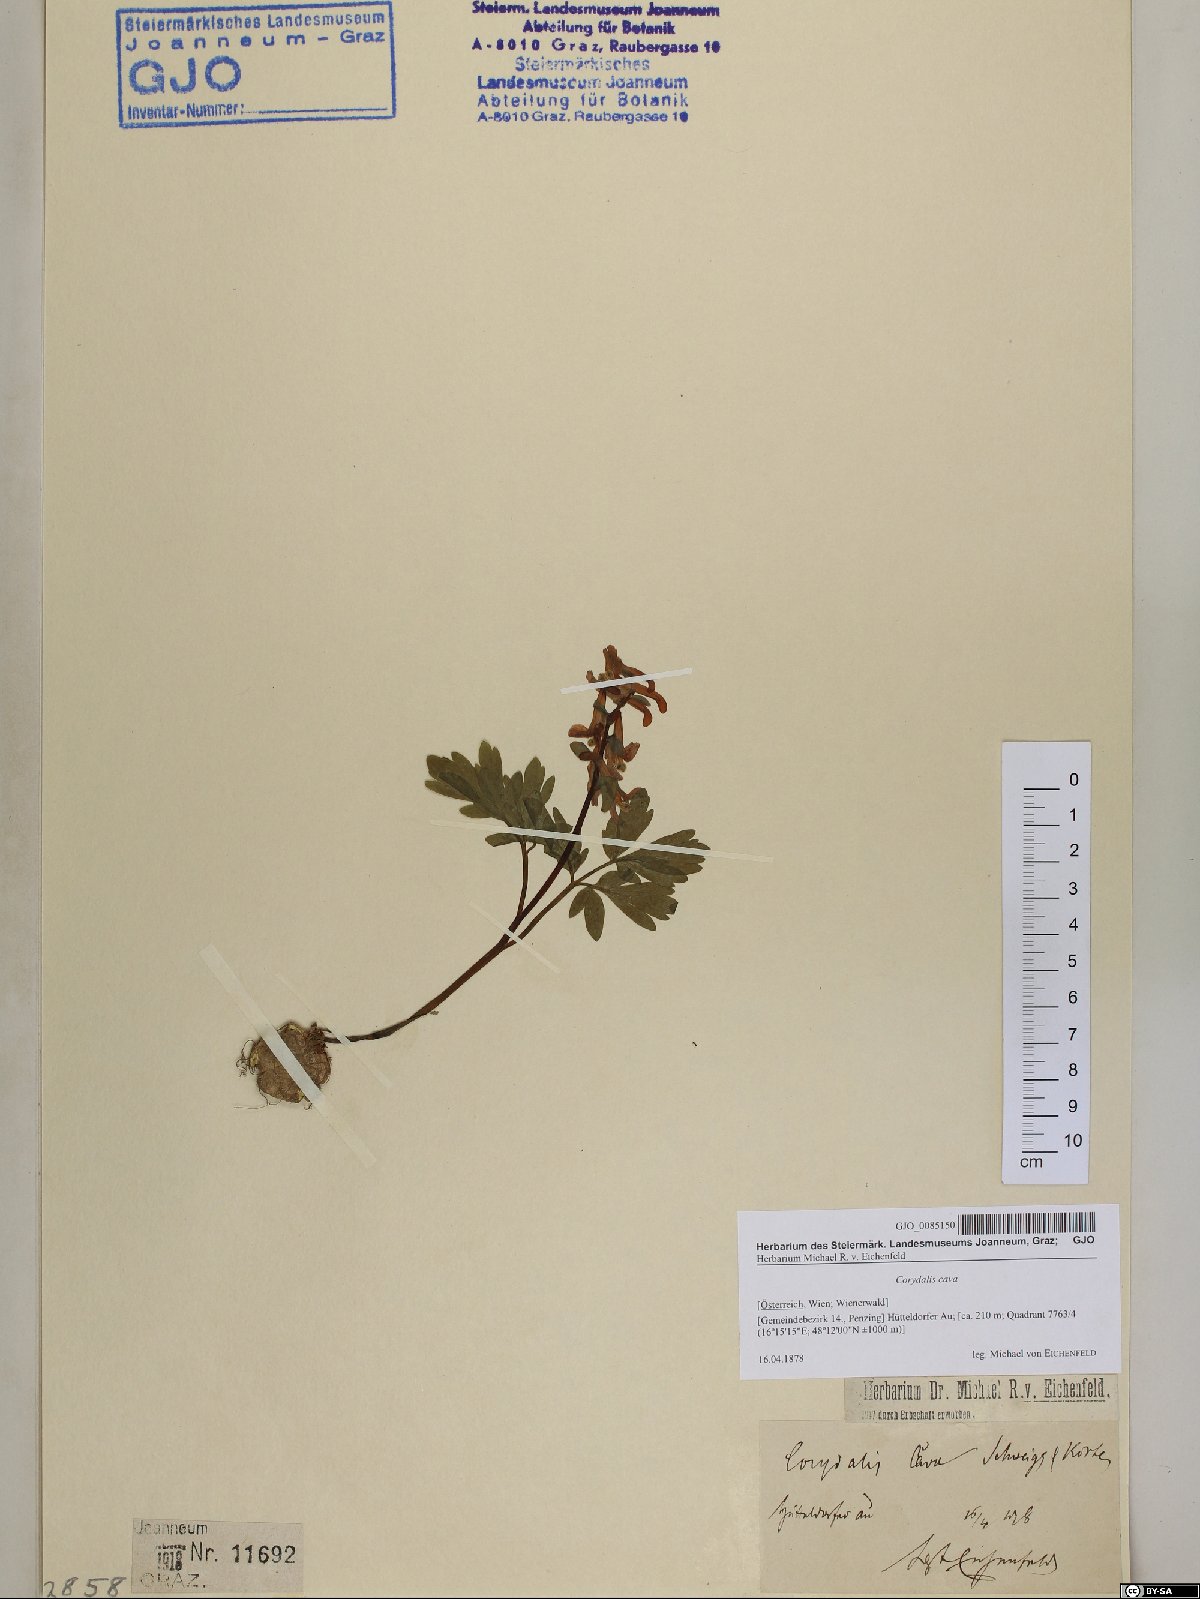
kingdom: Plantae
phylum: Tracheophyta
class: Magnoliopsida
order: Ranunculales
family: Papaveraceae
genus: Corydalis
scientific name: Corydalis cava
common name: Hollowroot
